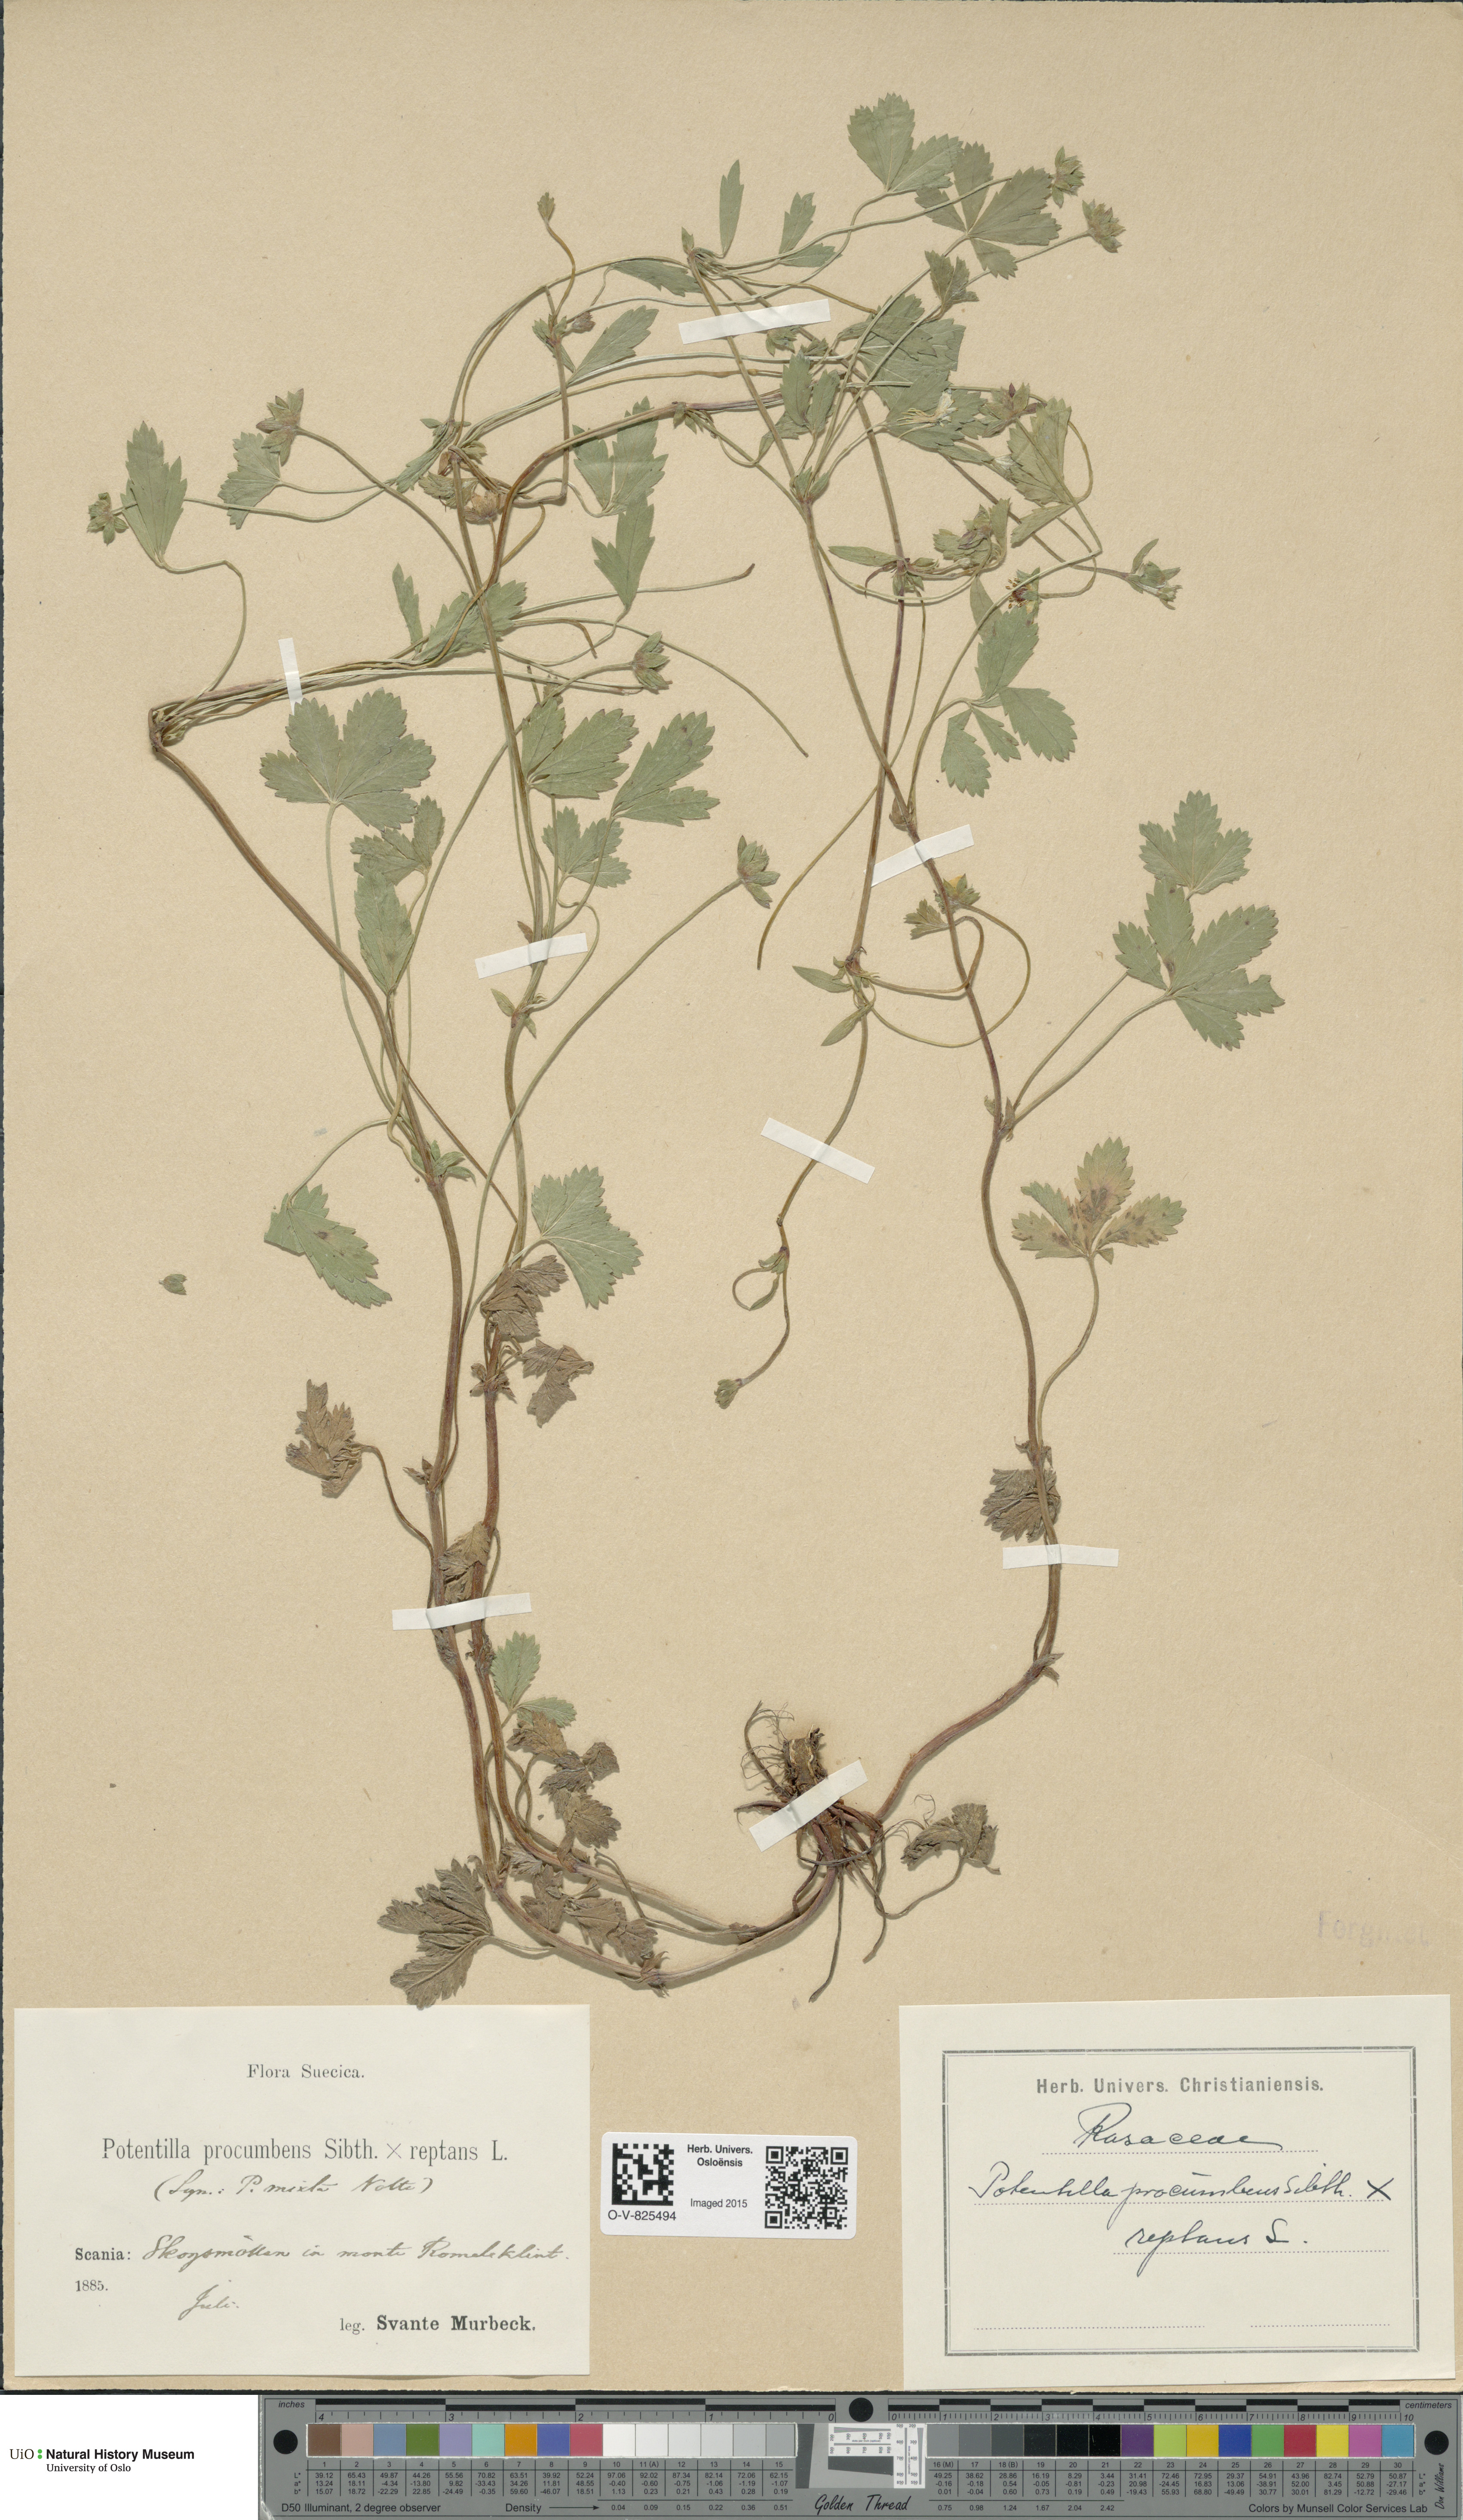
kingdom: Plantae
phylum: Tracheophyta
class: Magnoliopsida
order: Rosales
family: Rosaceae
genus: Potentilla
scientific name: Potentilla
